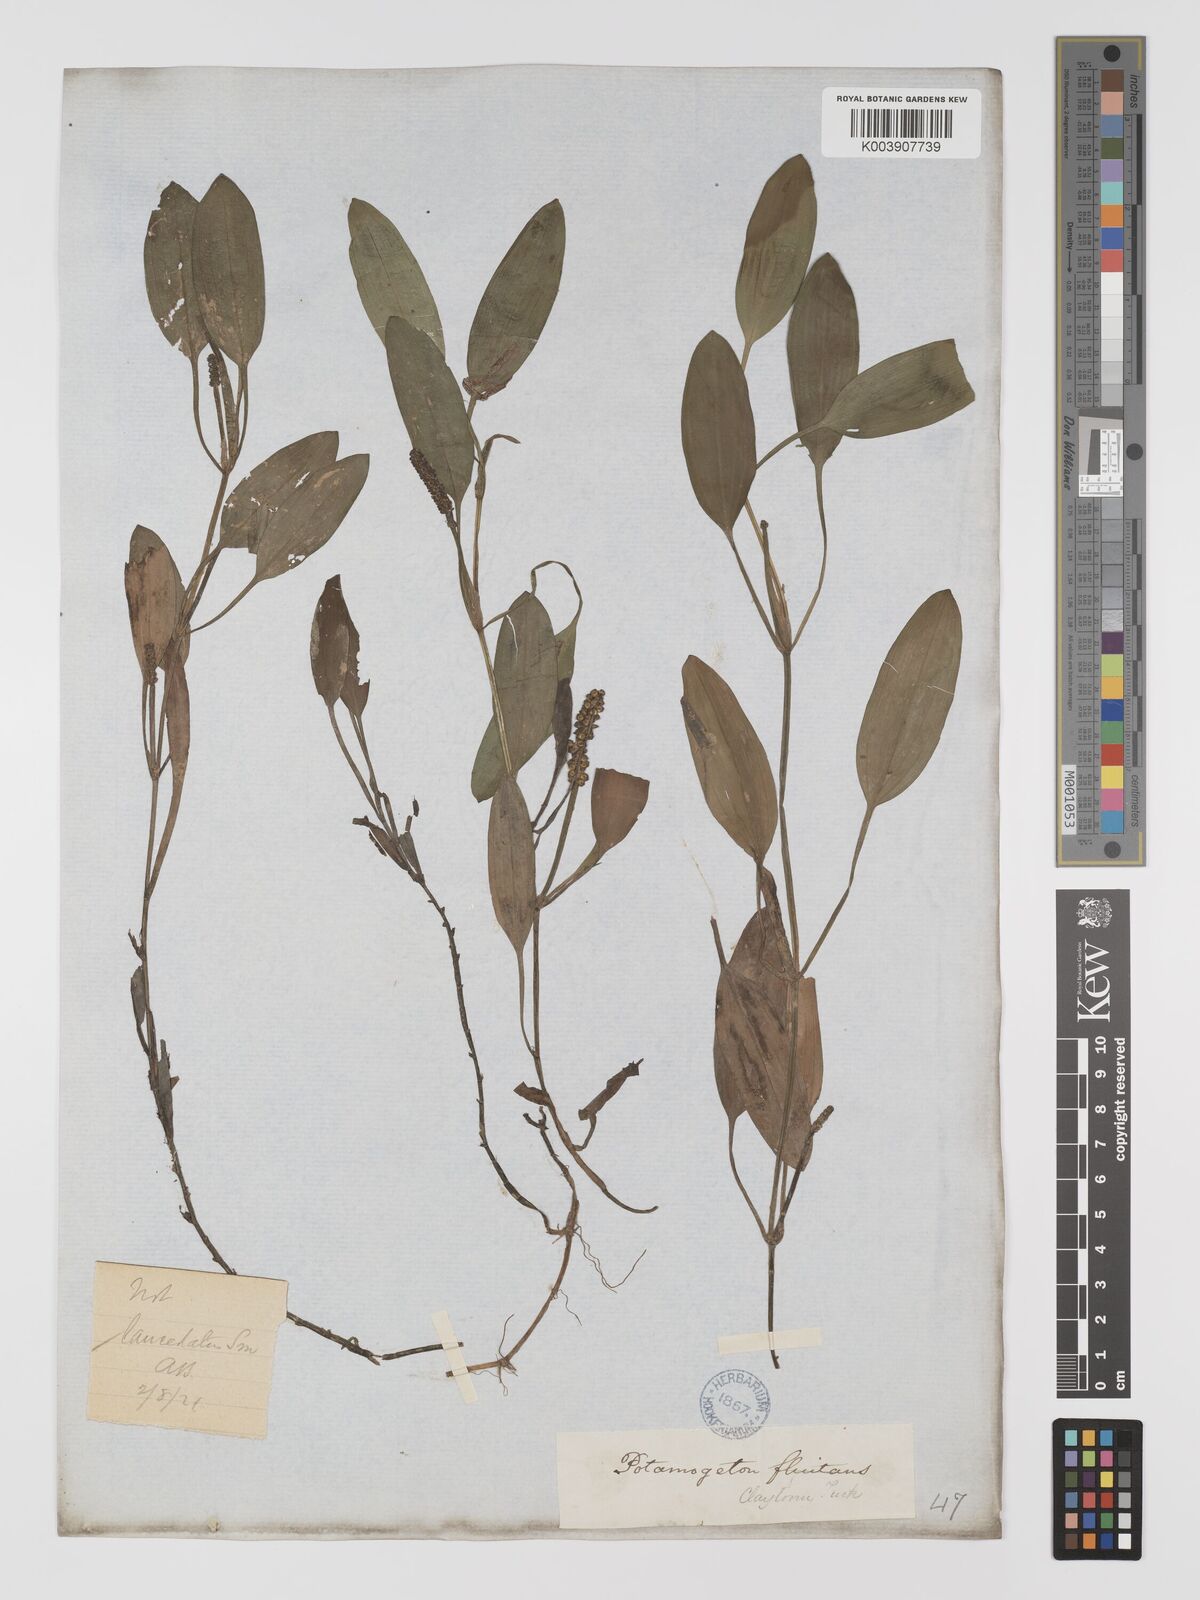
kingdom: Plantae
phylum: Tracheophyta
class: Liliopsida
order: Alismatales
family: Potamogetonaceae
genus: Potamogeton
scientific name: Potamogeton gramineus
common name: Various-leaved pondweed
